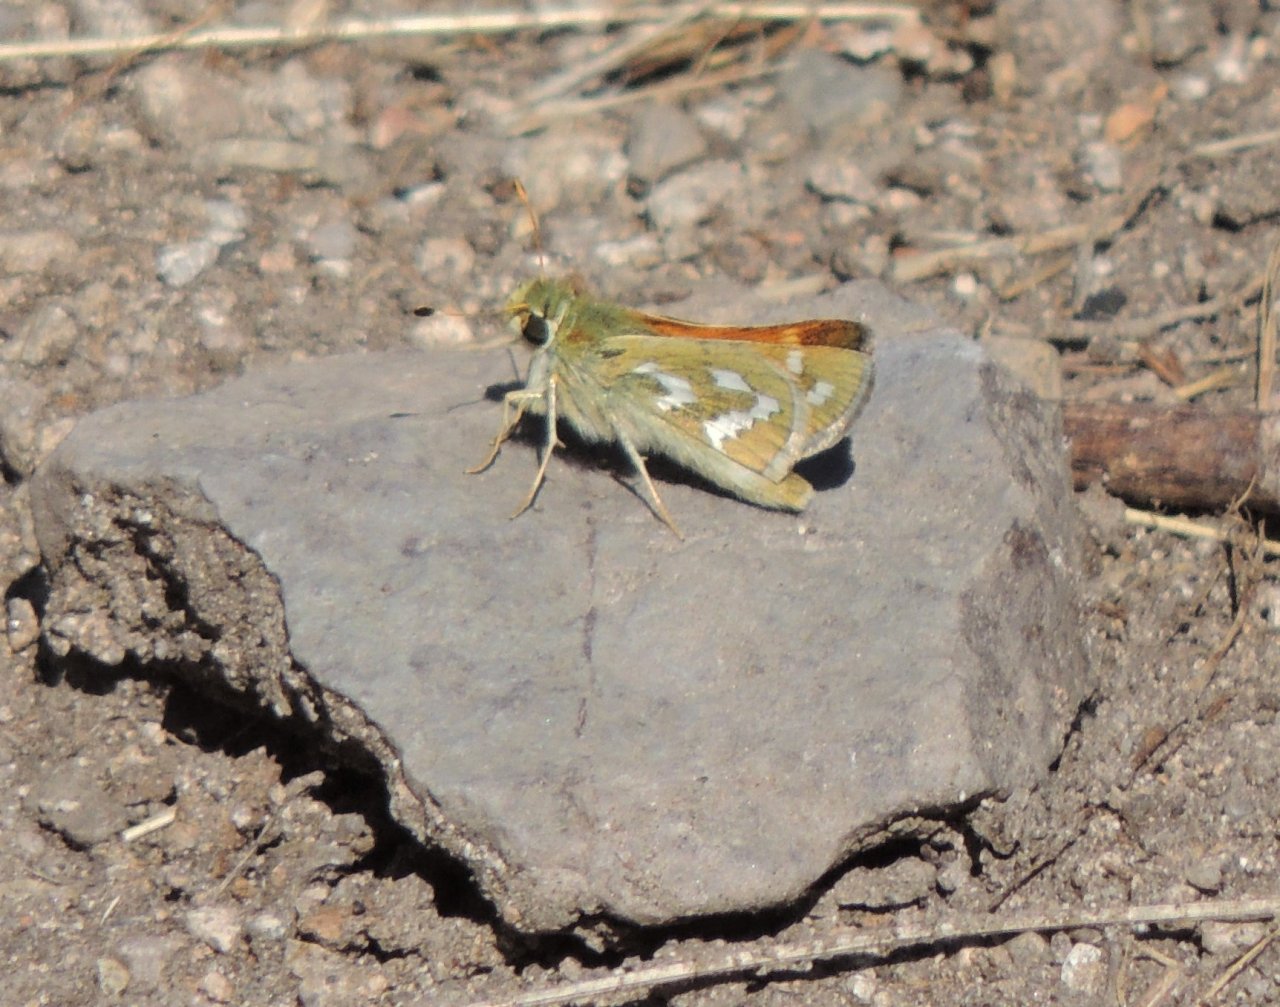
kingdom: Animalia
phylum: Arthropoda
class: Insecta
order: Lepidoptera
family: Hesperiidae
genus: Hesperia
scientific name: Hesperia comma
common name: Western Branded Skipper
